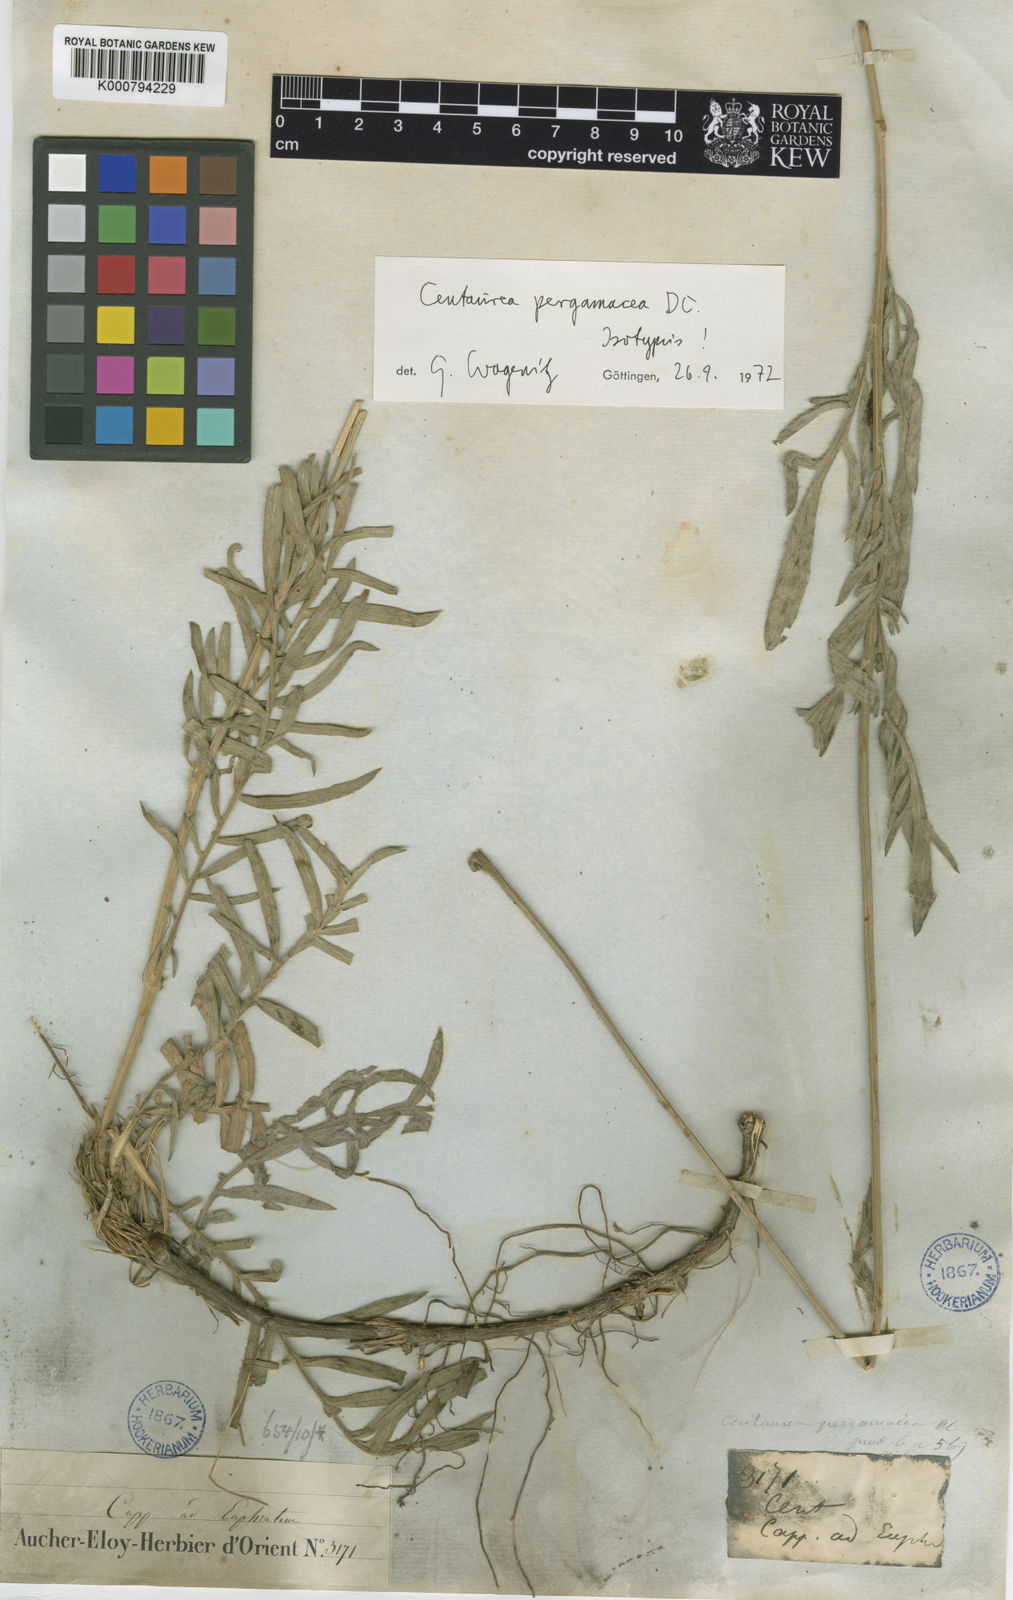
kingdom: Plantae
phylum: Tracheophyta
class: Magnoliopsida
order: Asterales
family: Asteraceae
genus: Psephellus
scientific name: Psephellus pergamaceus
